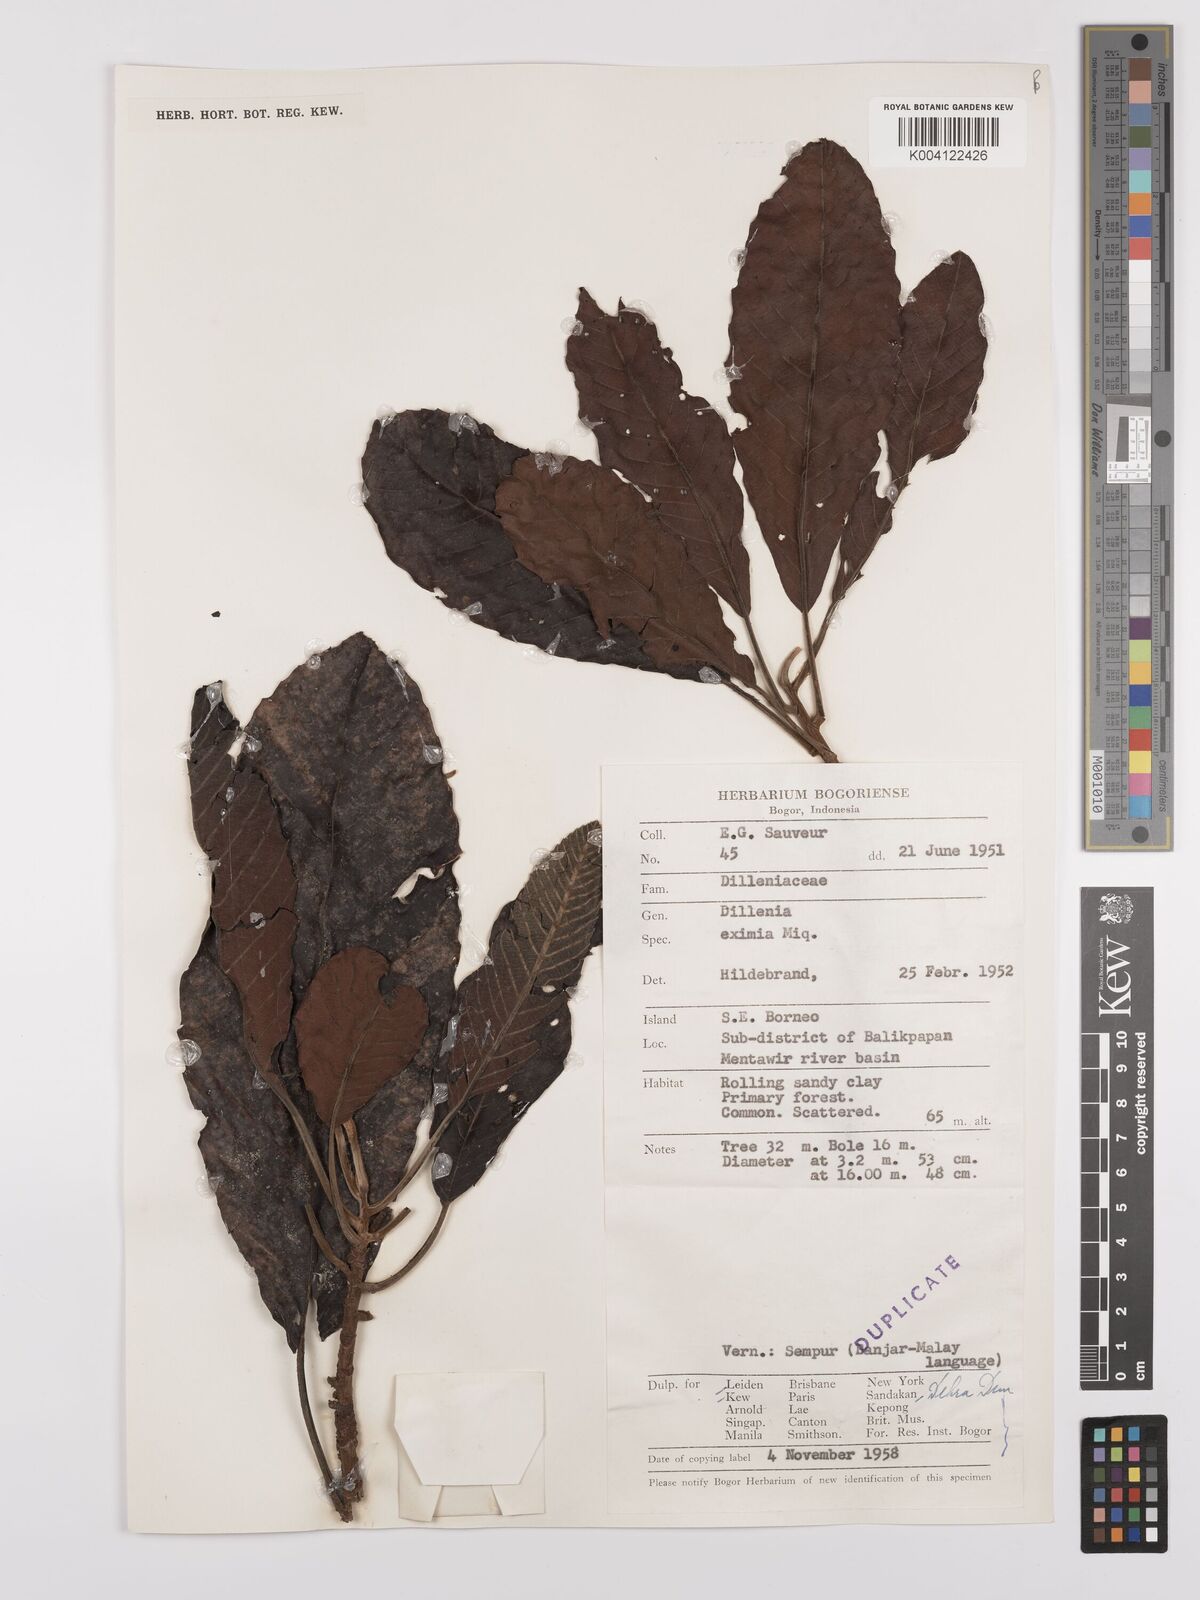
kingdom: Plantae
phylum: Tracheophyta
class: Magnoliopsida
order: Dilleniales
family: Dilleniaceae
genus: Dillenia
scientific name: Dillenia grandifolia
